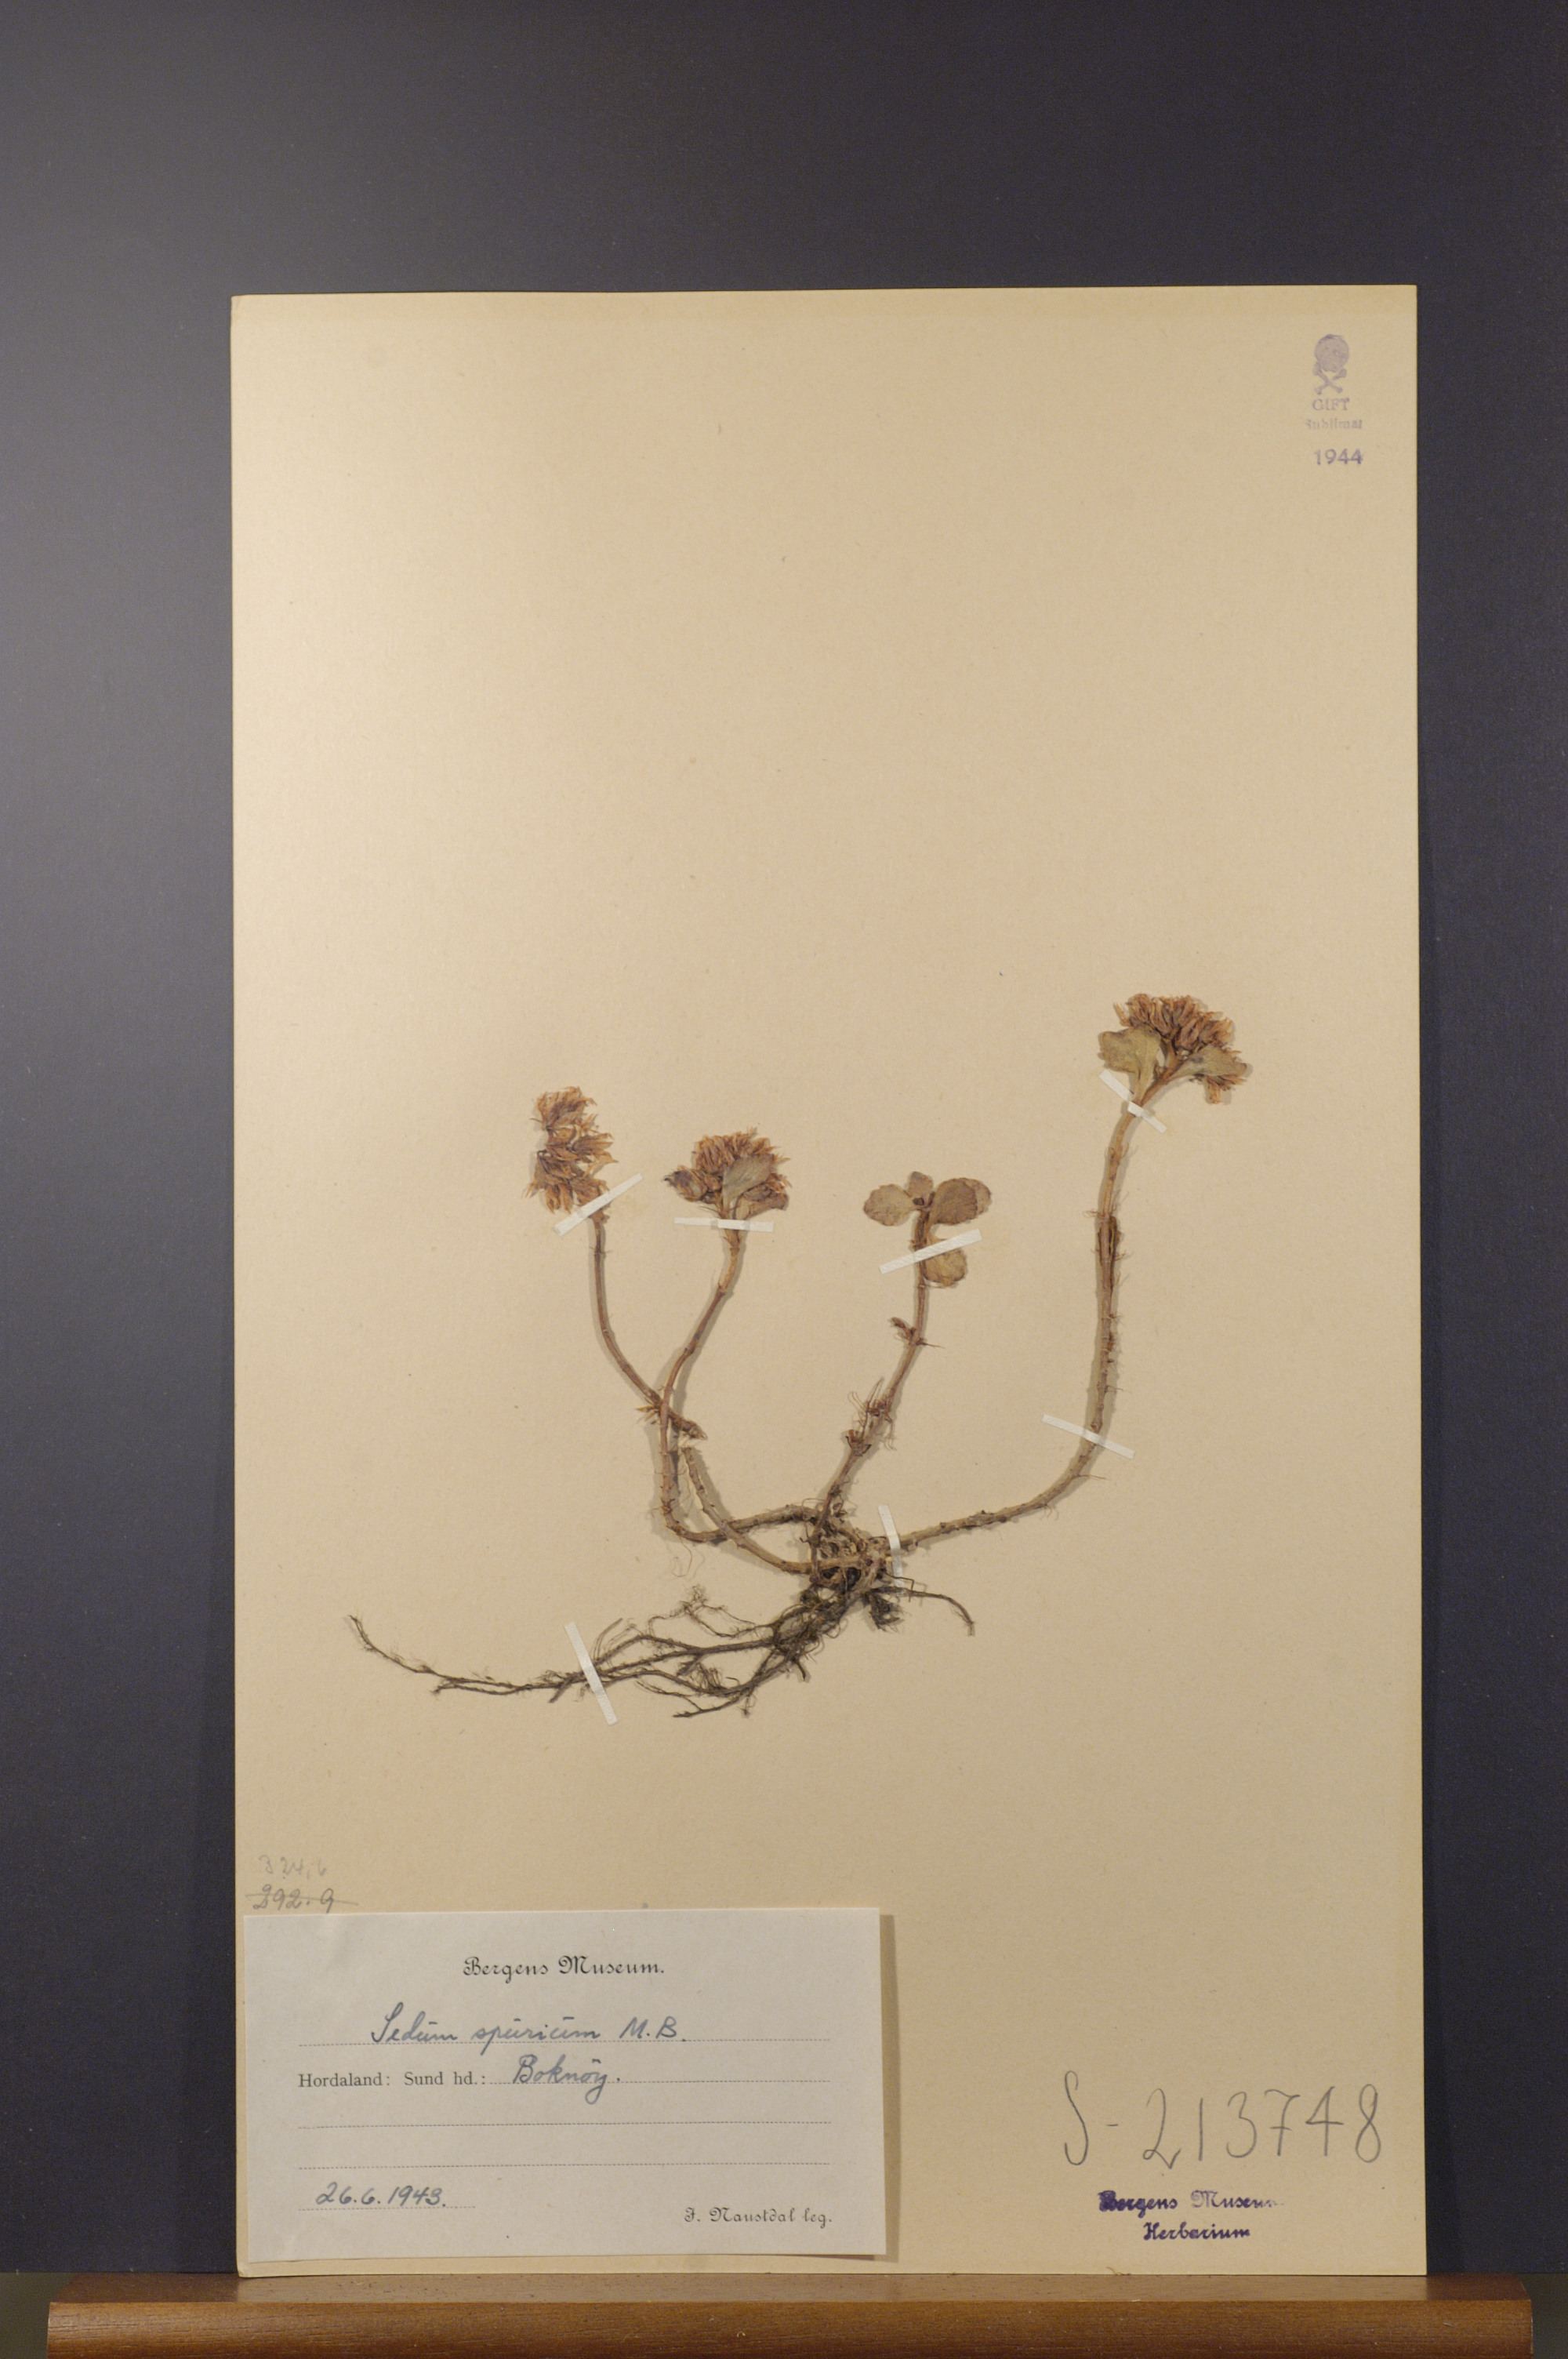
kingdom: Plantae
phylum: Tracheophyta
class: Magnoliopsida
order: Saxifragales
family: Crassulaceae
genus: Phedimus
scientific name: Phedimus spurius
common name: Caucasian stonecrop
